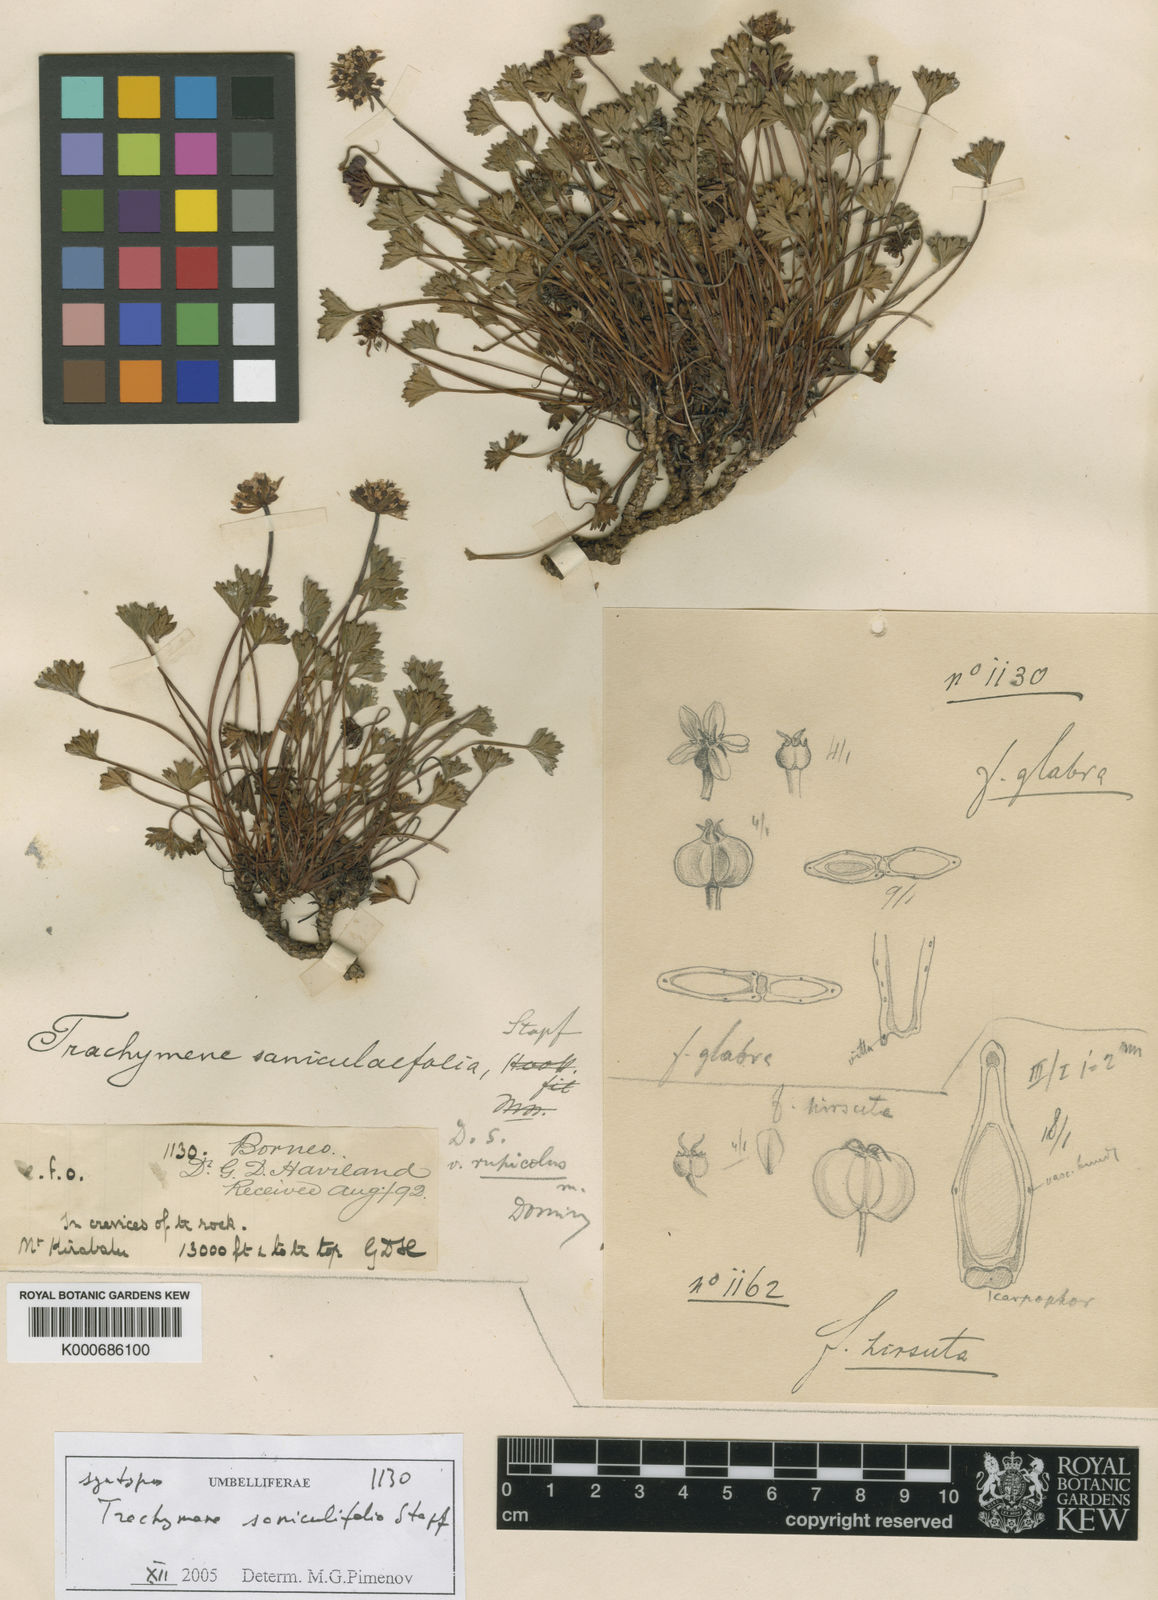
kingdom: Plantae
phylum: Tracheophyta
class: Magnoliopsida
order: Apiales
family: Araliaceae
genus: Trachymene
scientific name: Trachymene saniculifolia
